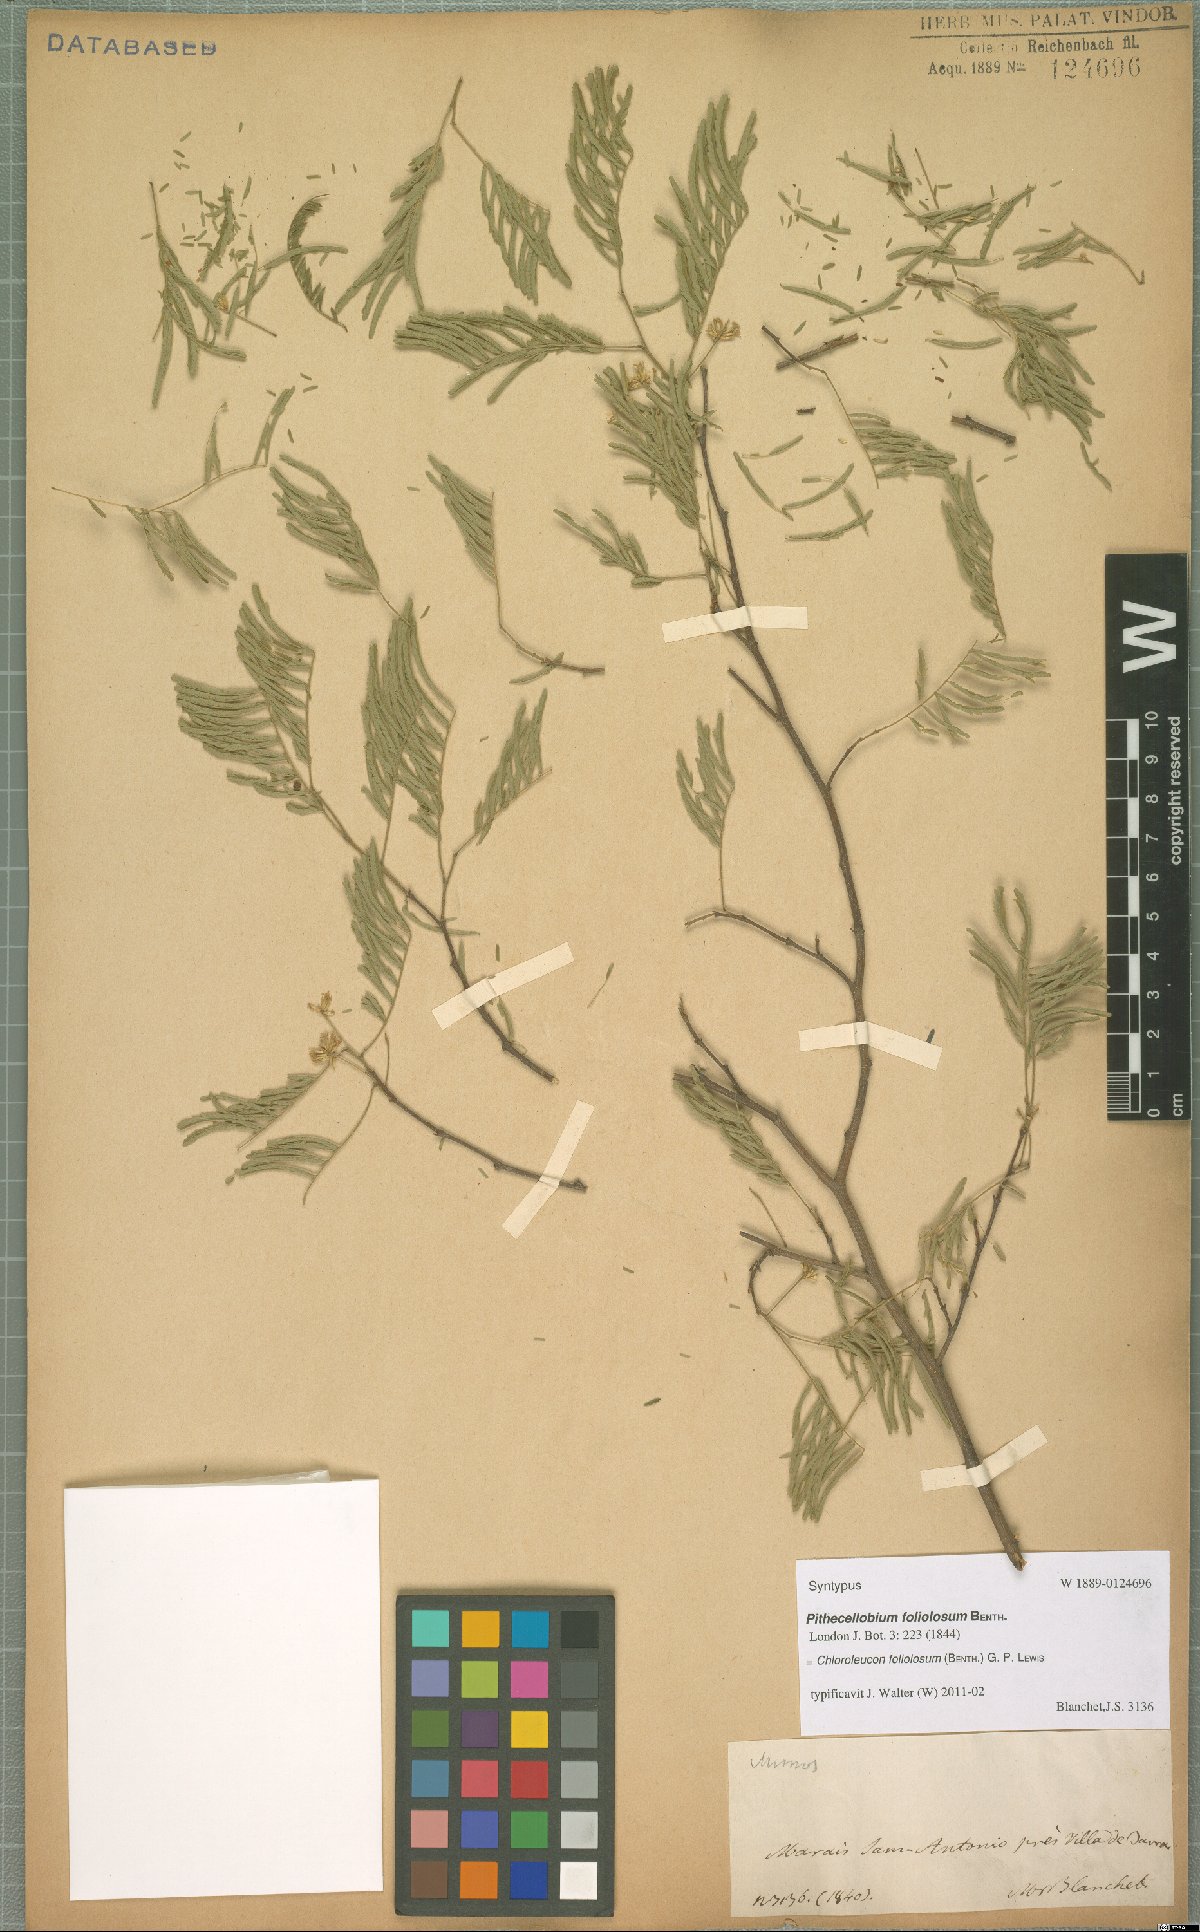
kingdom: Plantae
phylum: Tracheophyta
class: Magnoliopsida
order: Fabales
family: Fabaceae
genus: Chloroleucon
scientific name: Chloroleucon foliolosum
